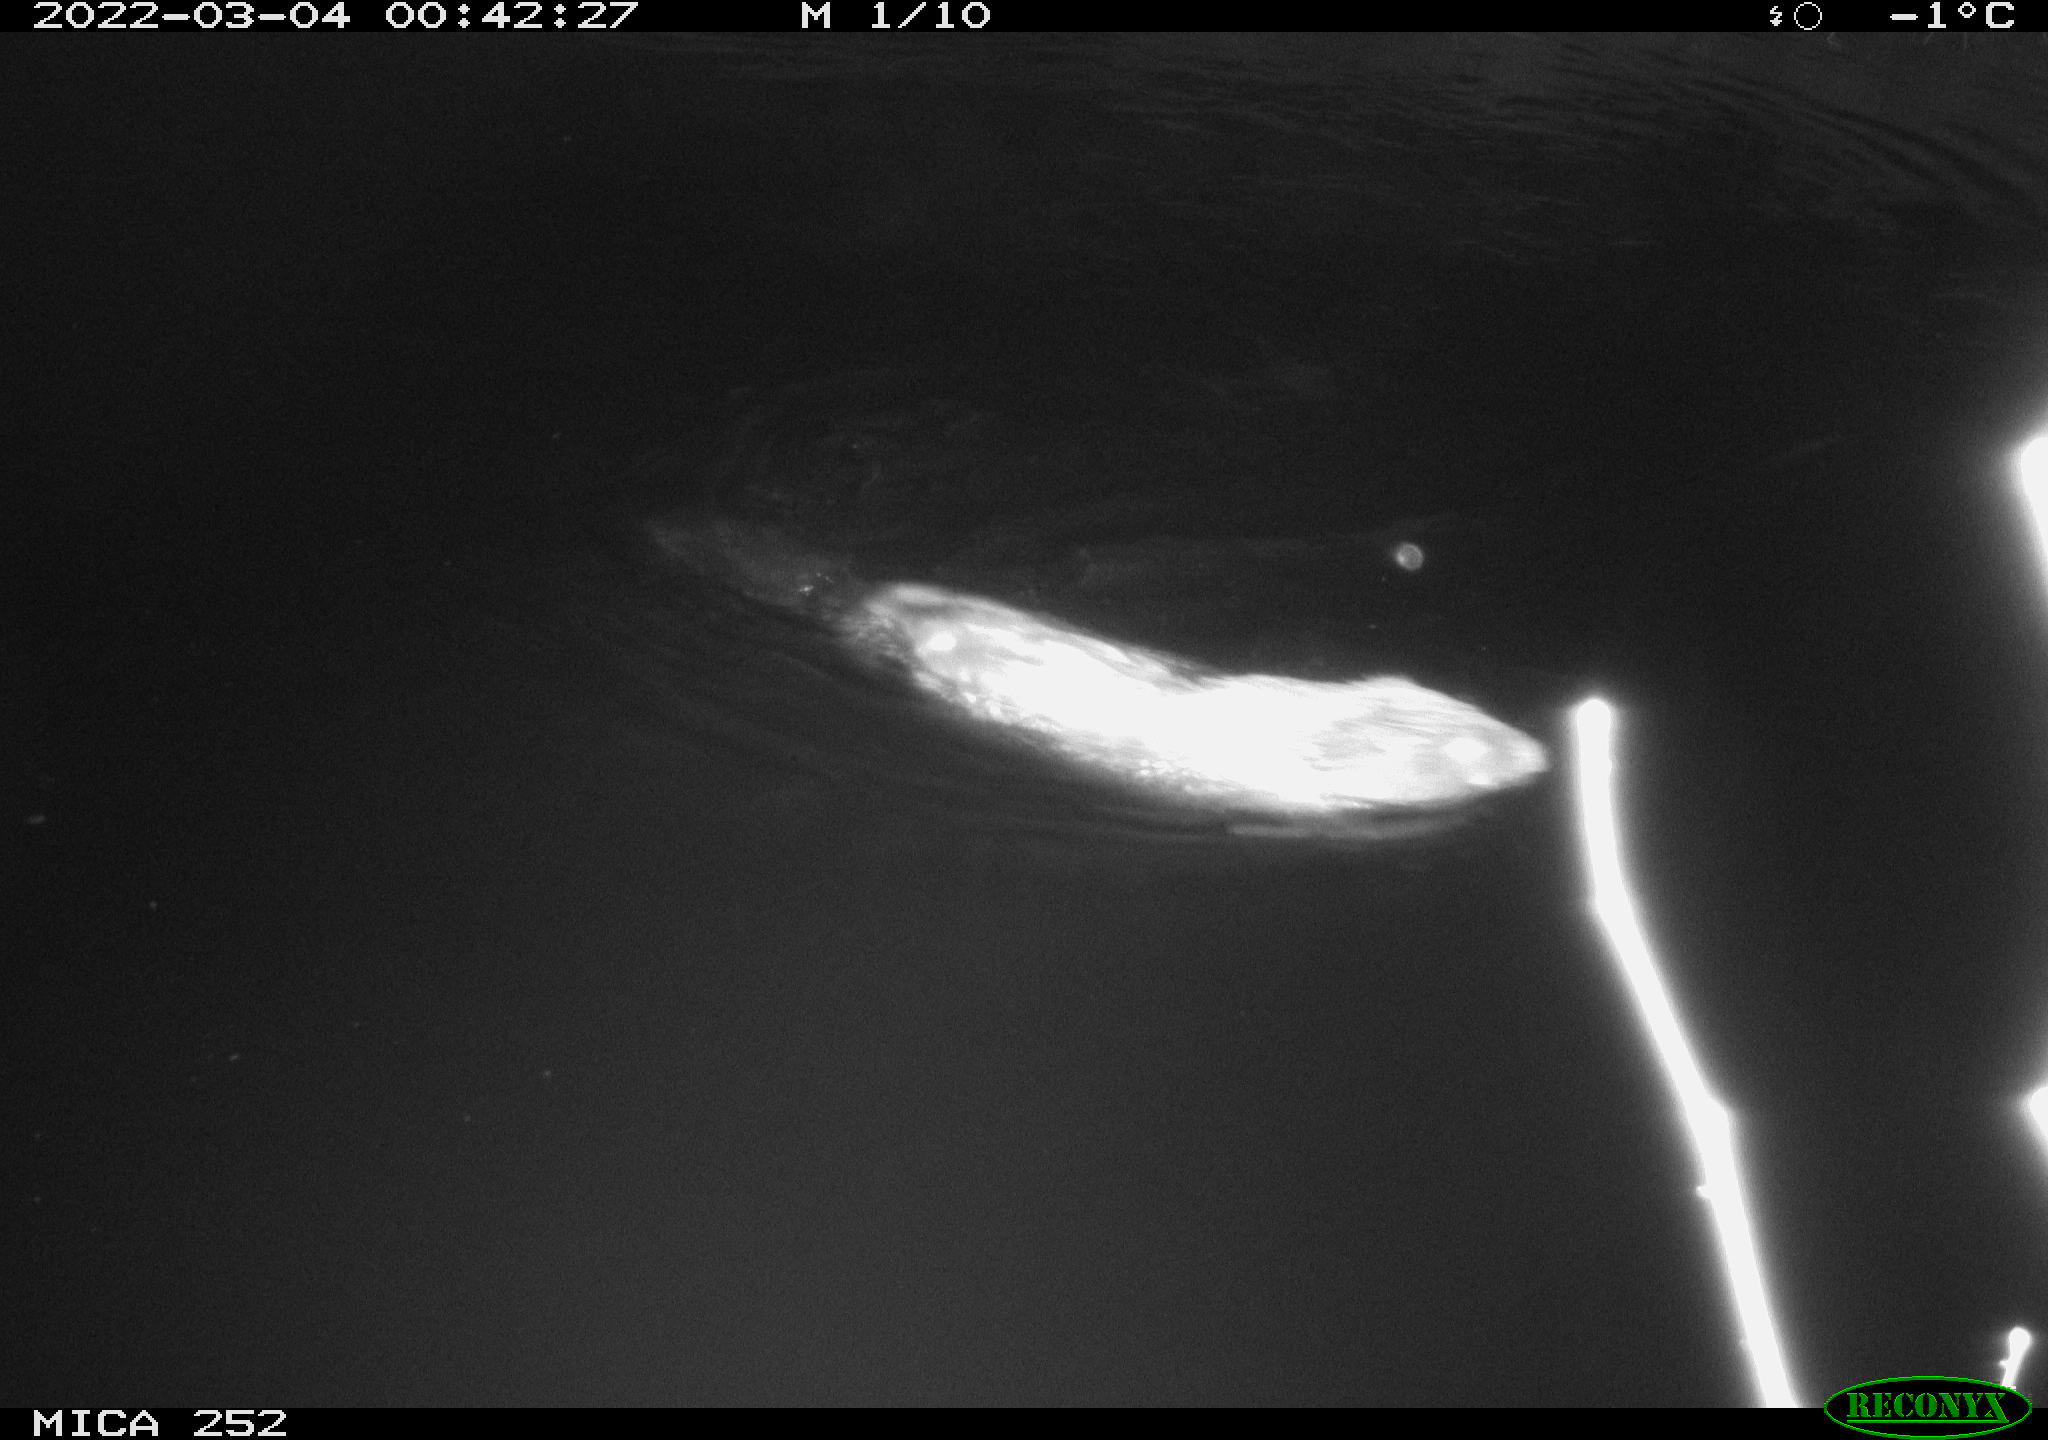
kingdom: Animalia
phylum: Chordata
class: Mammalia
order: Rodentia
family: Castoridae
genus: Castor
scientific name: Castor fiber
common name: Eurasian beaver
